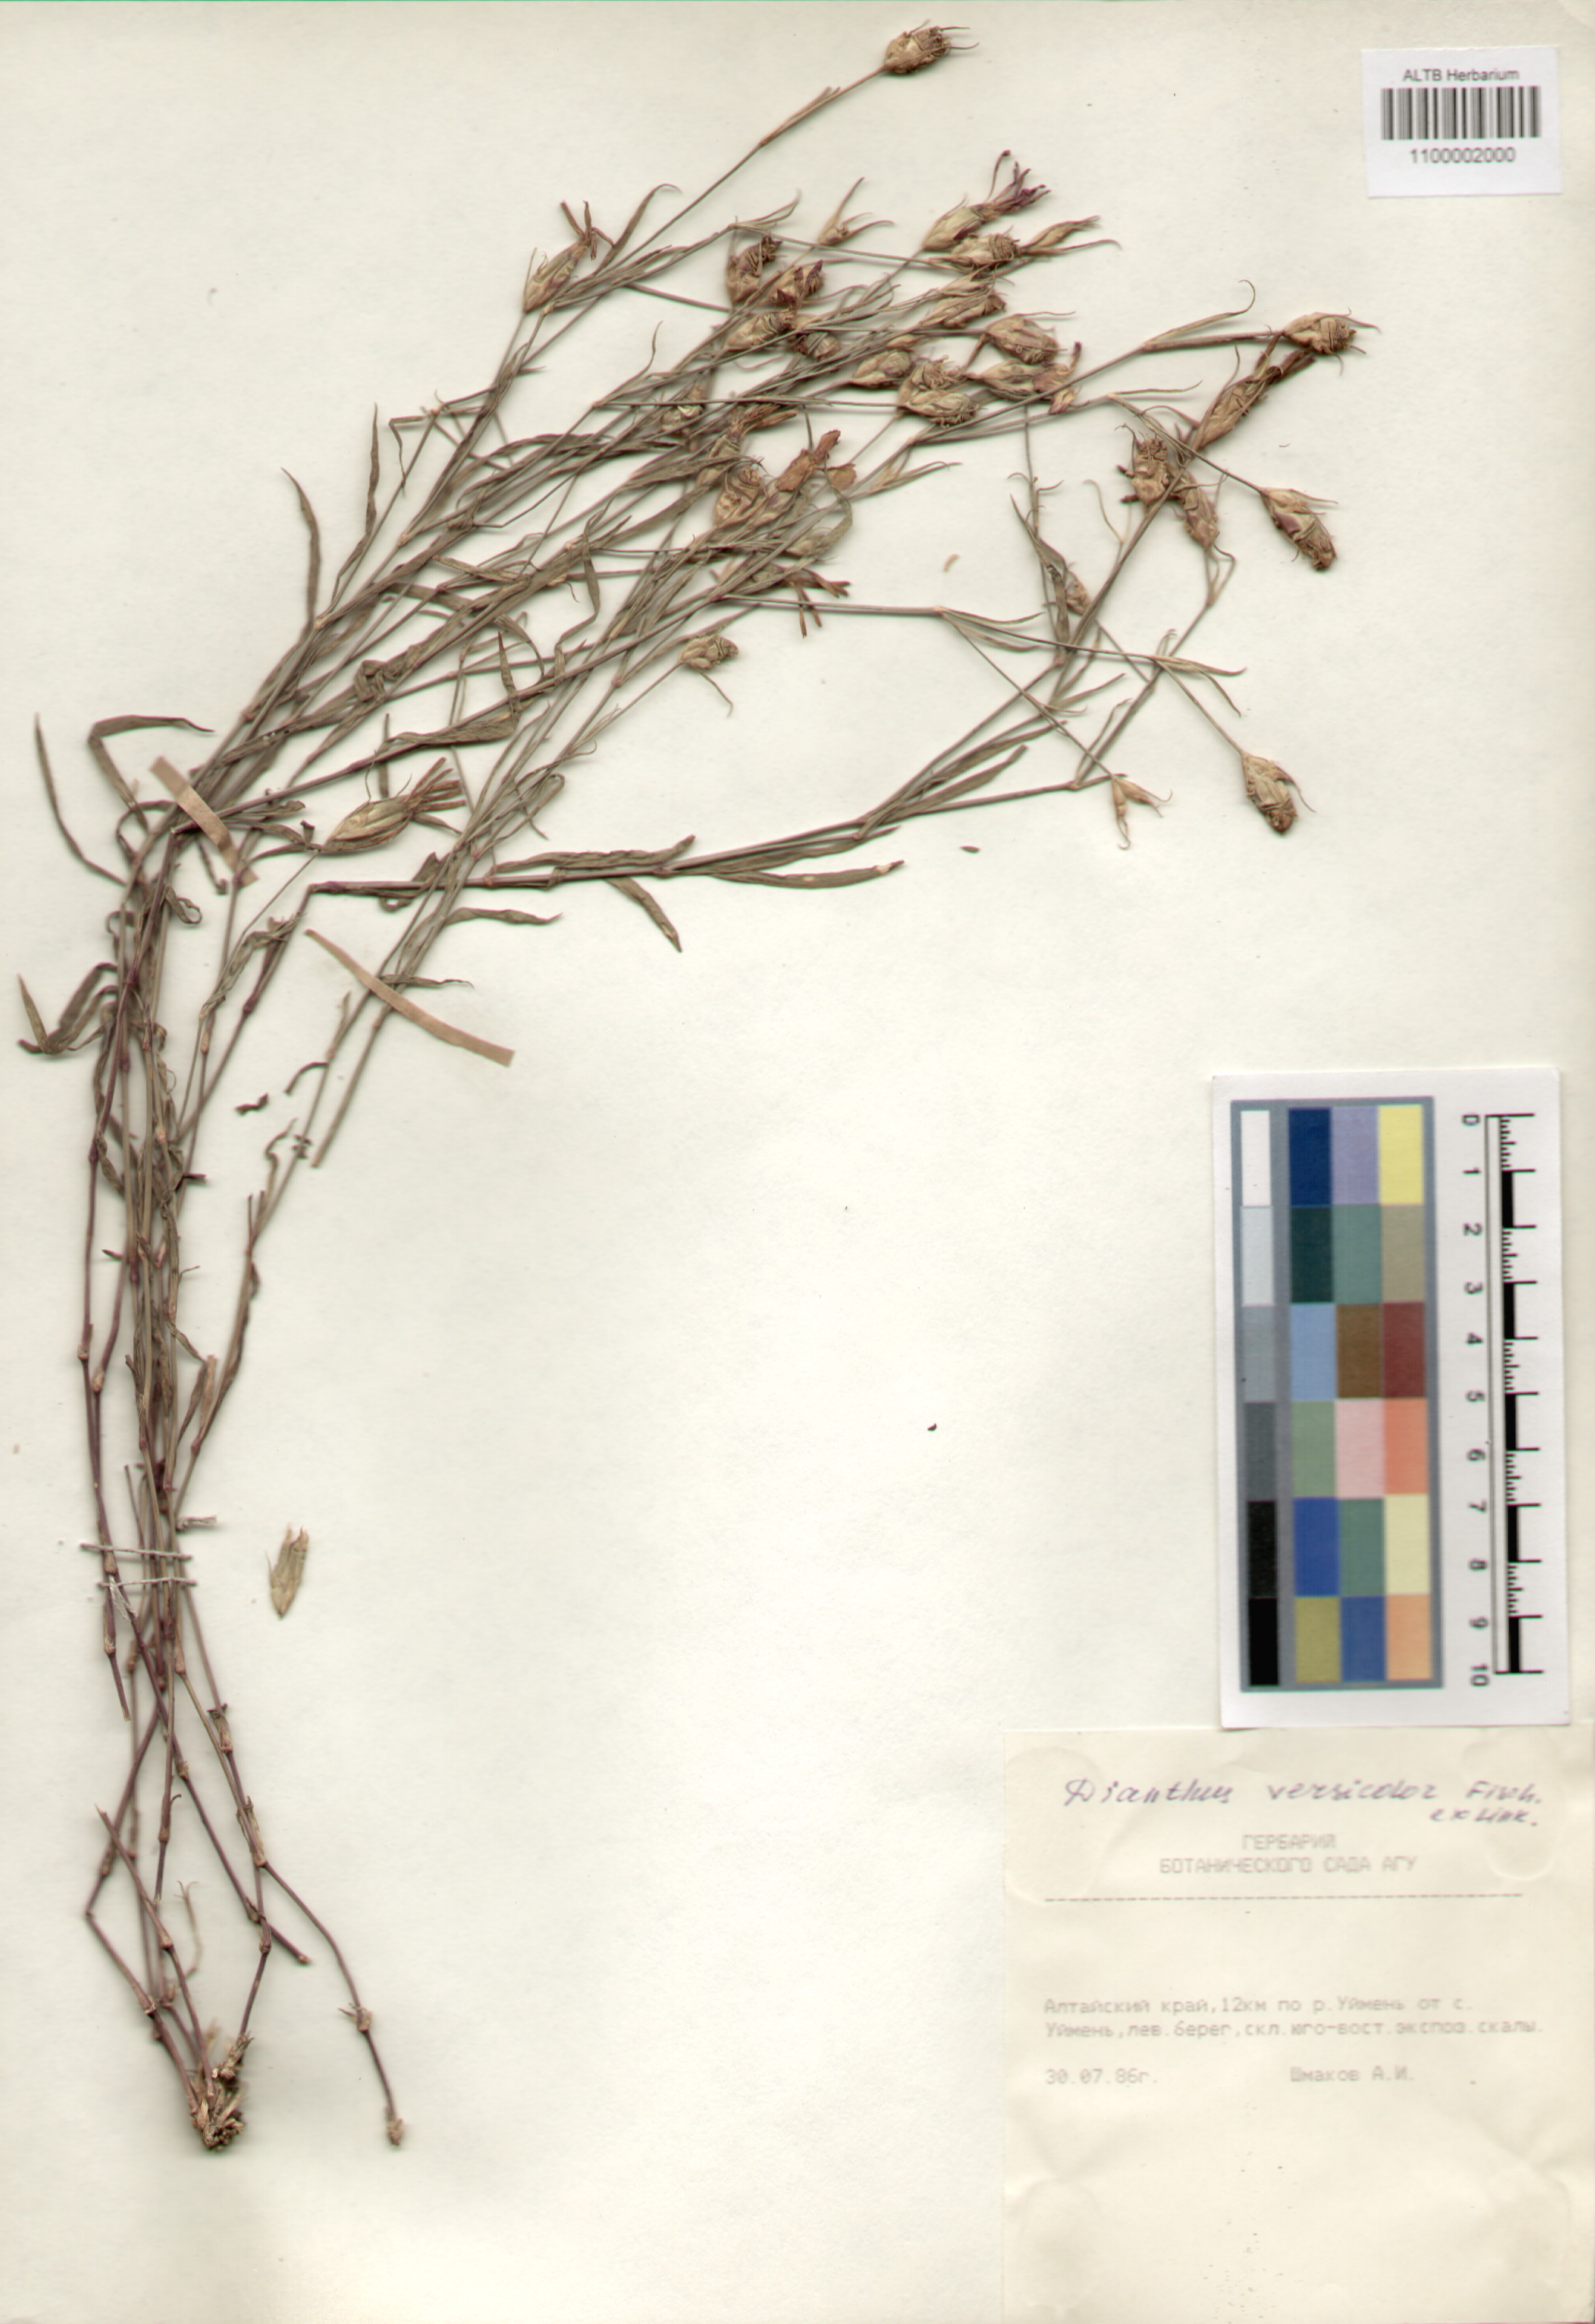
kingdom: Plantae
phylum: Tracheophyta
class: Magnoliopsida
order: Caryophyllales
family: Caryophyllaceae
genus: Dianthus
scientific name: Dianthus chinensis
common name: Rainbow pink
